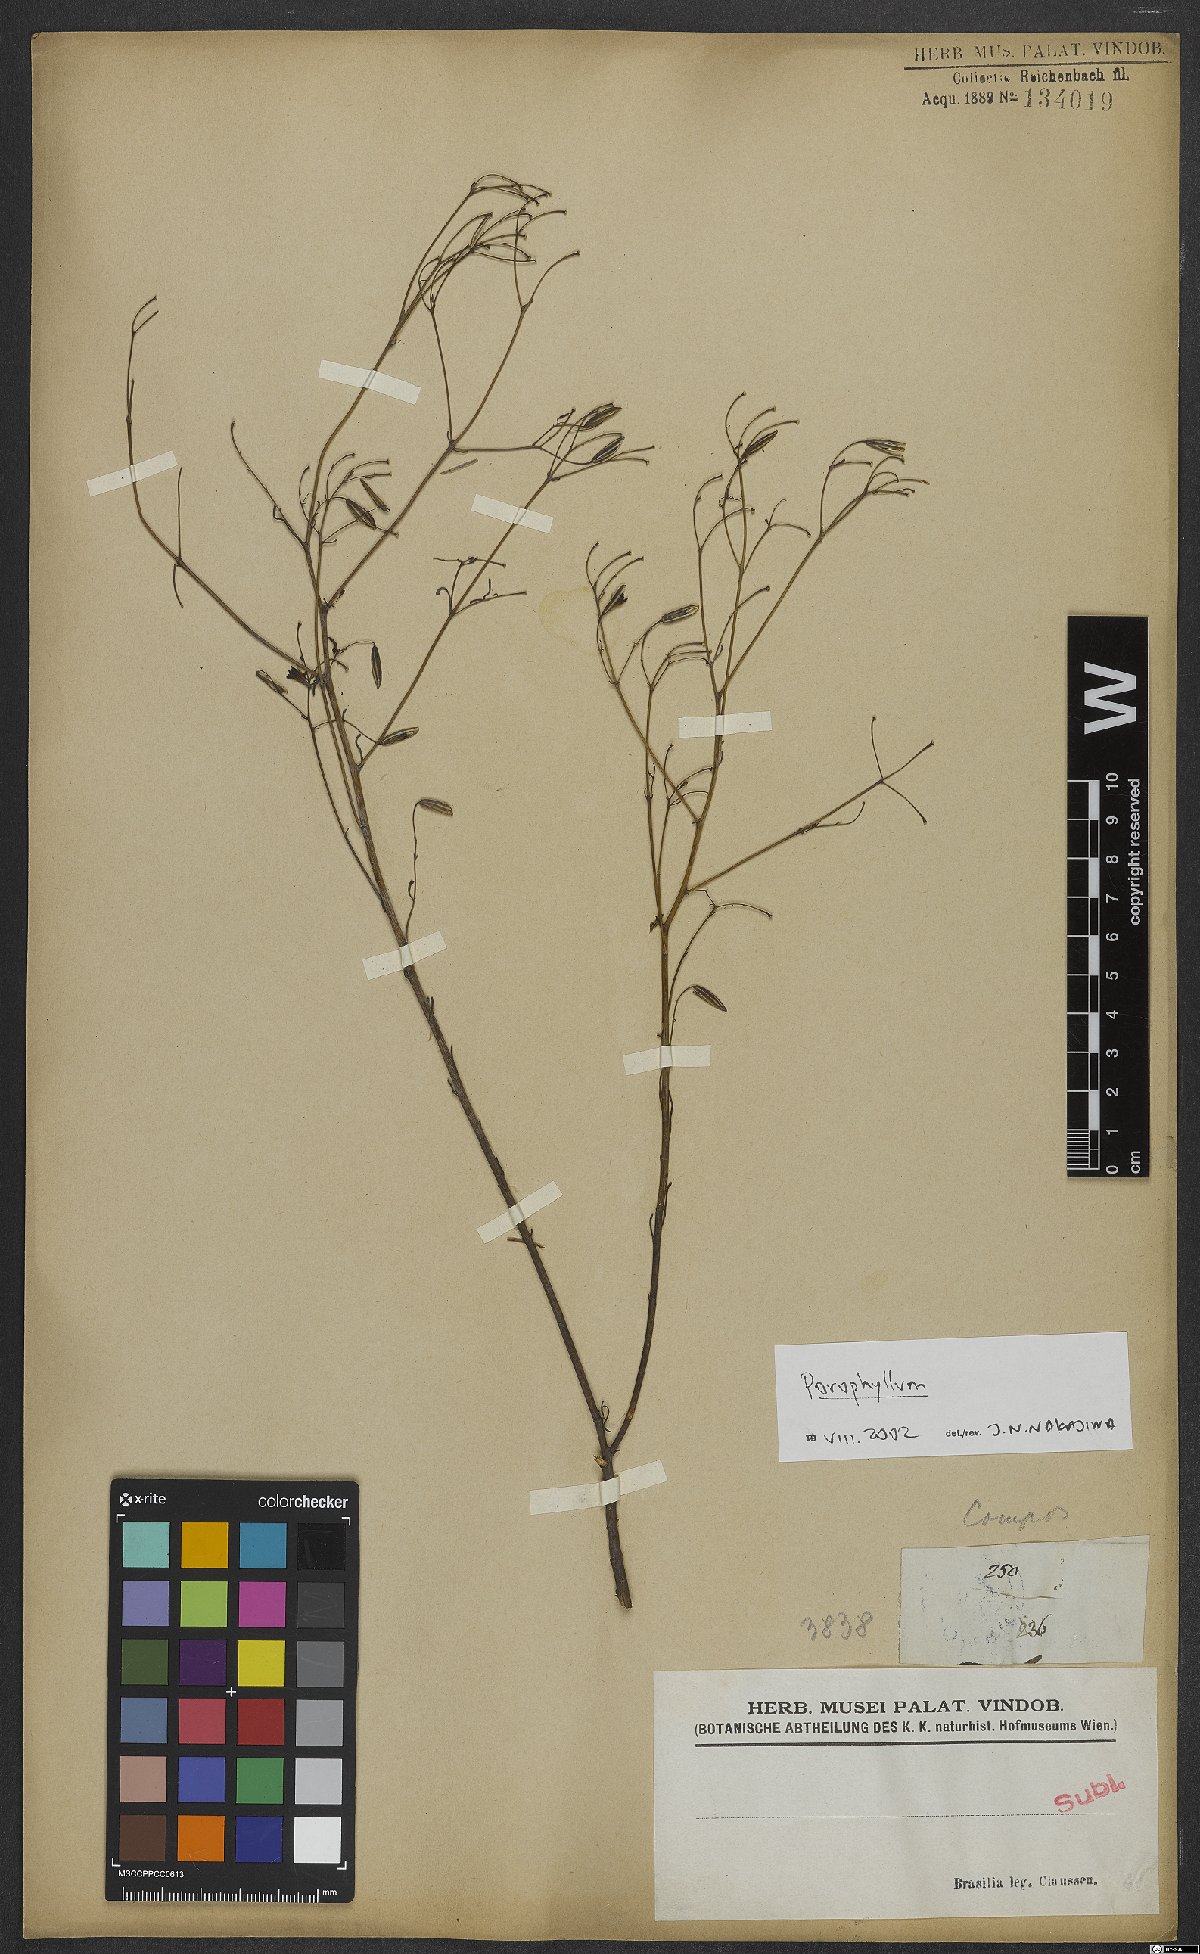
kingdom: Plantae
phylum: Tracheophyta
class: Magnoliopsida
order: Asterales
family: Asteraceae
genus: Porophyllum
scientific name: Porophyllum
